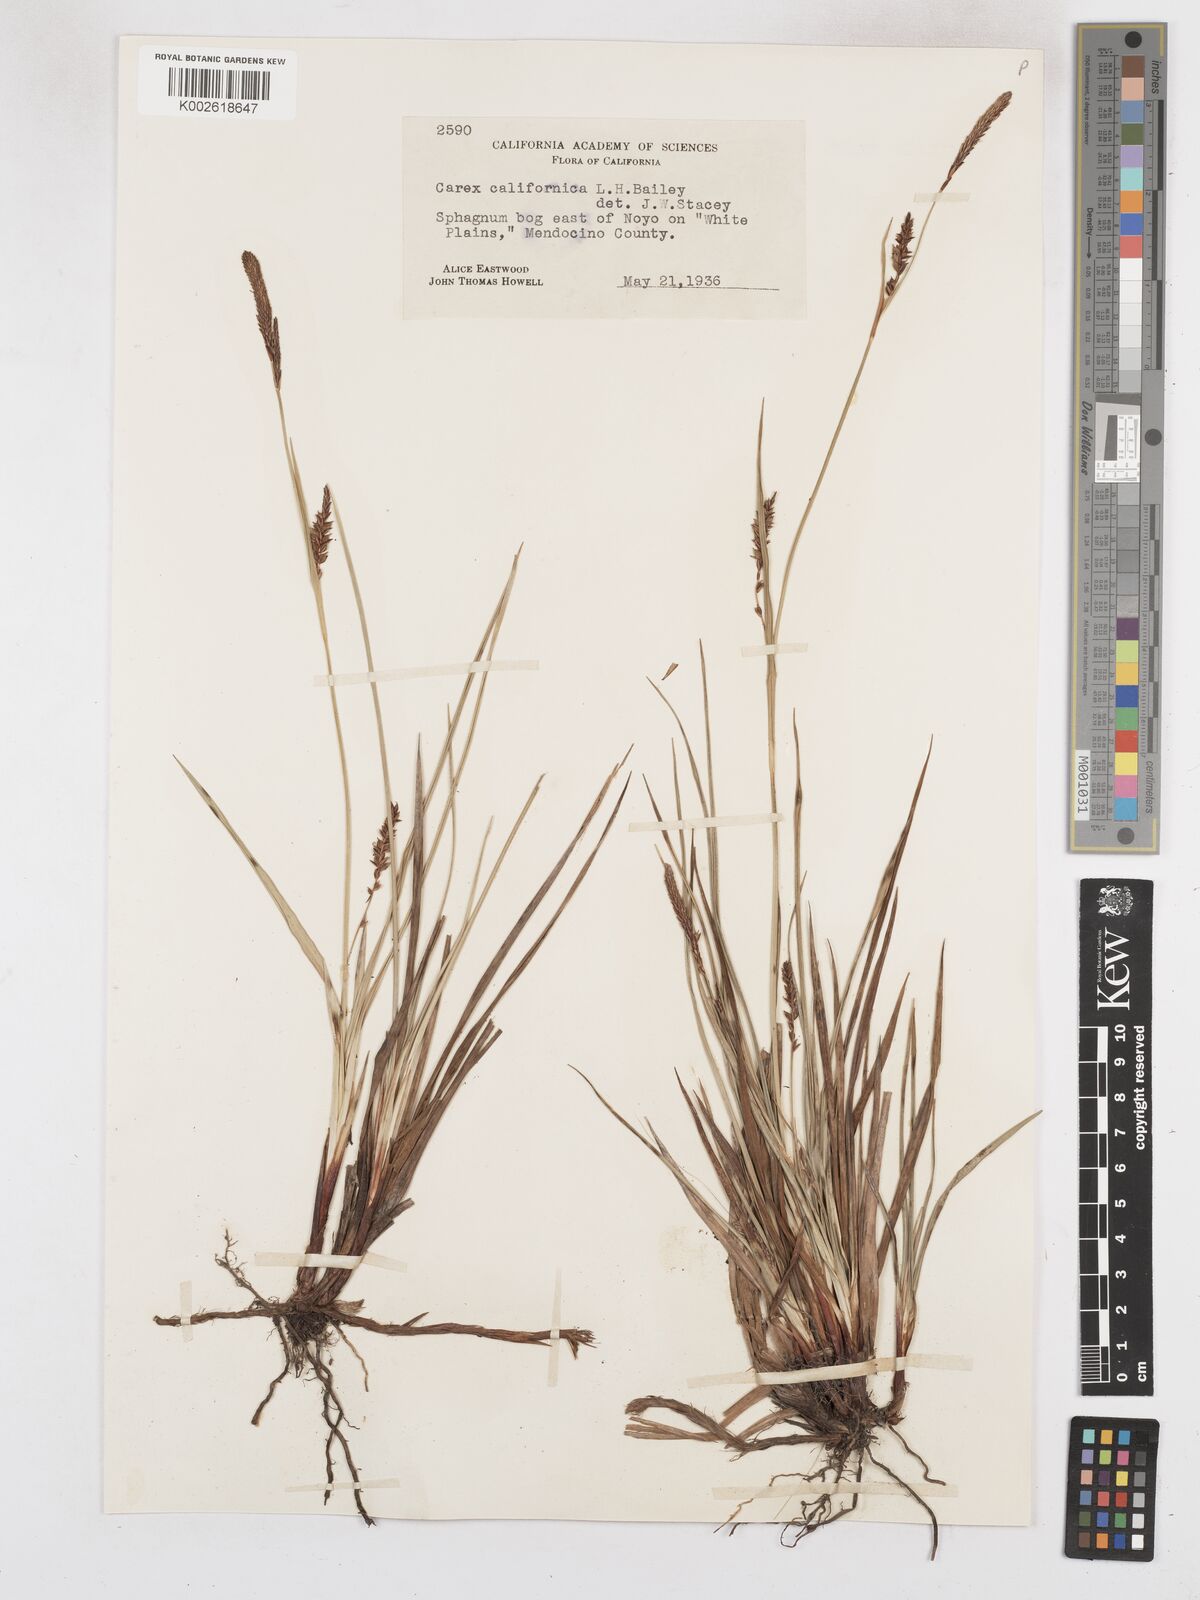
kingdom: Plantae
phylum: Tracheophyta
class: Liliopsida
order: Poales
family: Cyperaceae
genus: Carex
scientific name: Carex californica
